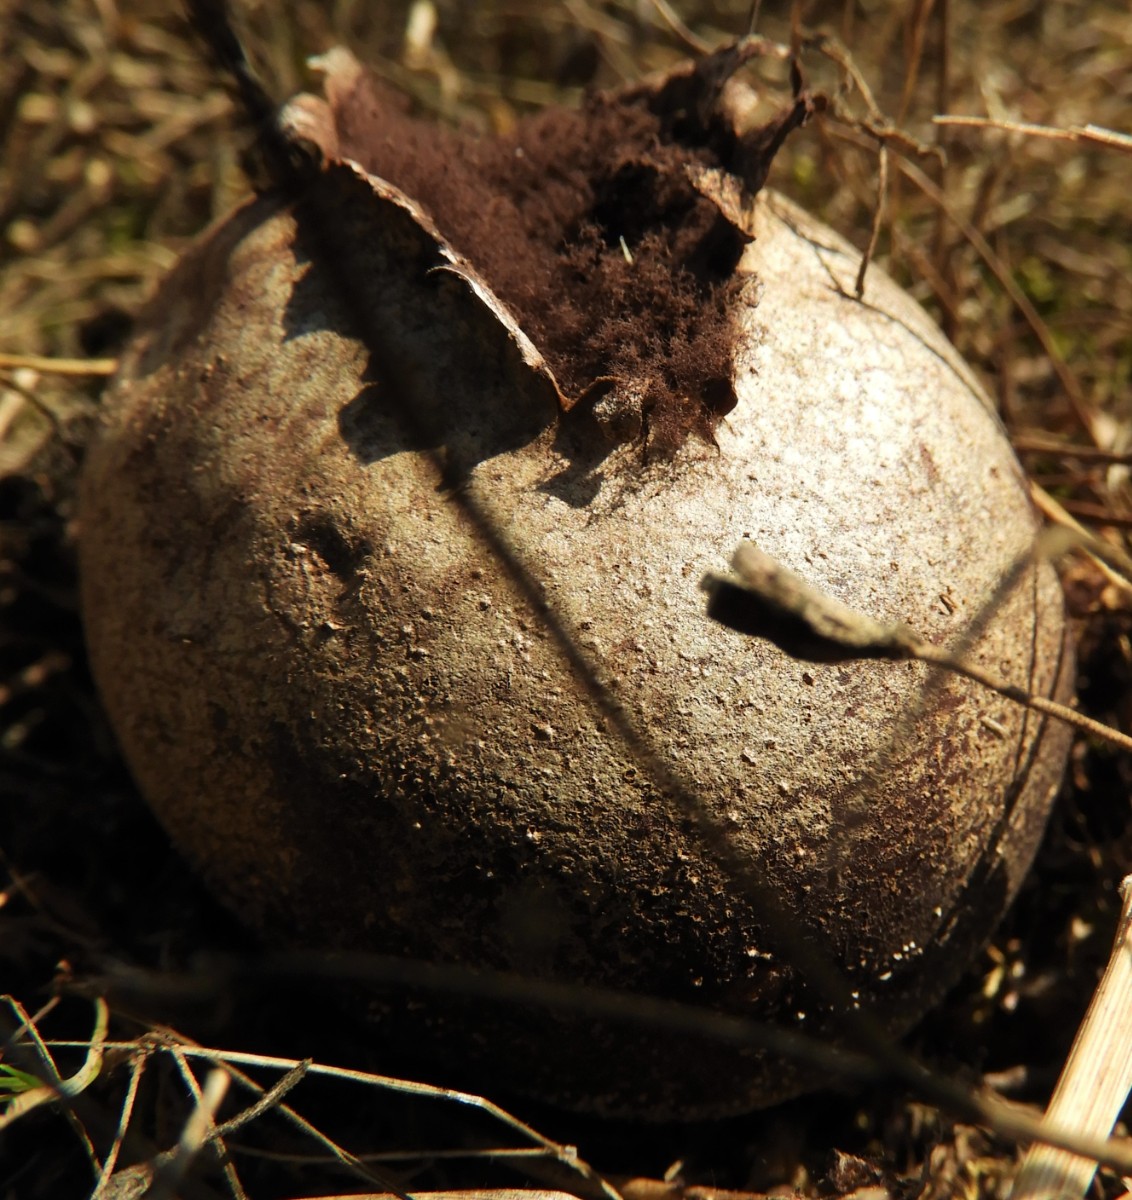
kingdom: Fungi
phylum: Basidiomycota
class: Agaricomycetes
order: Agaricales
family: Lycoperdaceae
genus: Bovista
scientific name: Bovista
